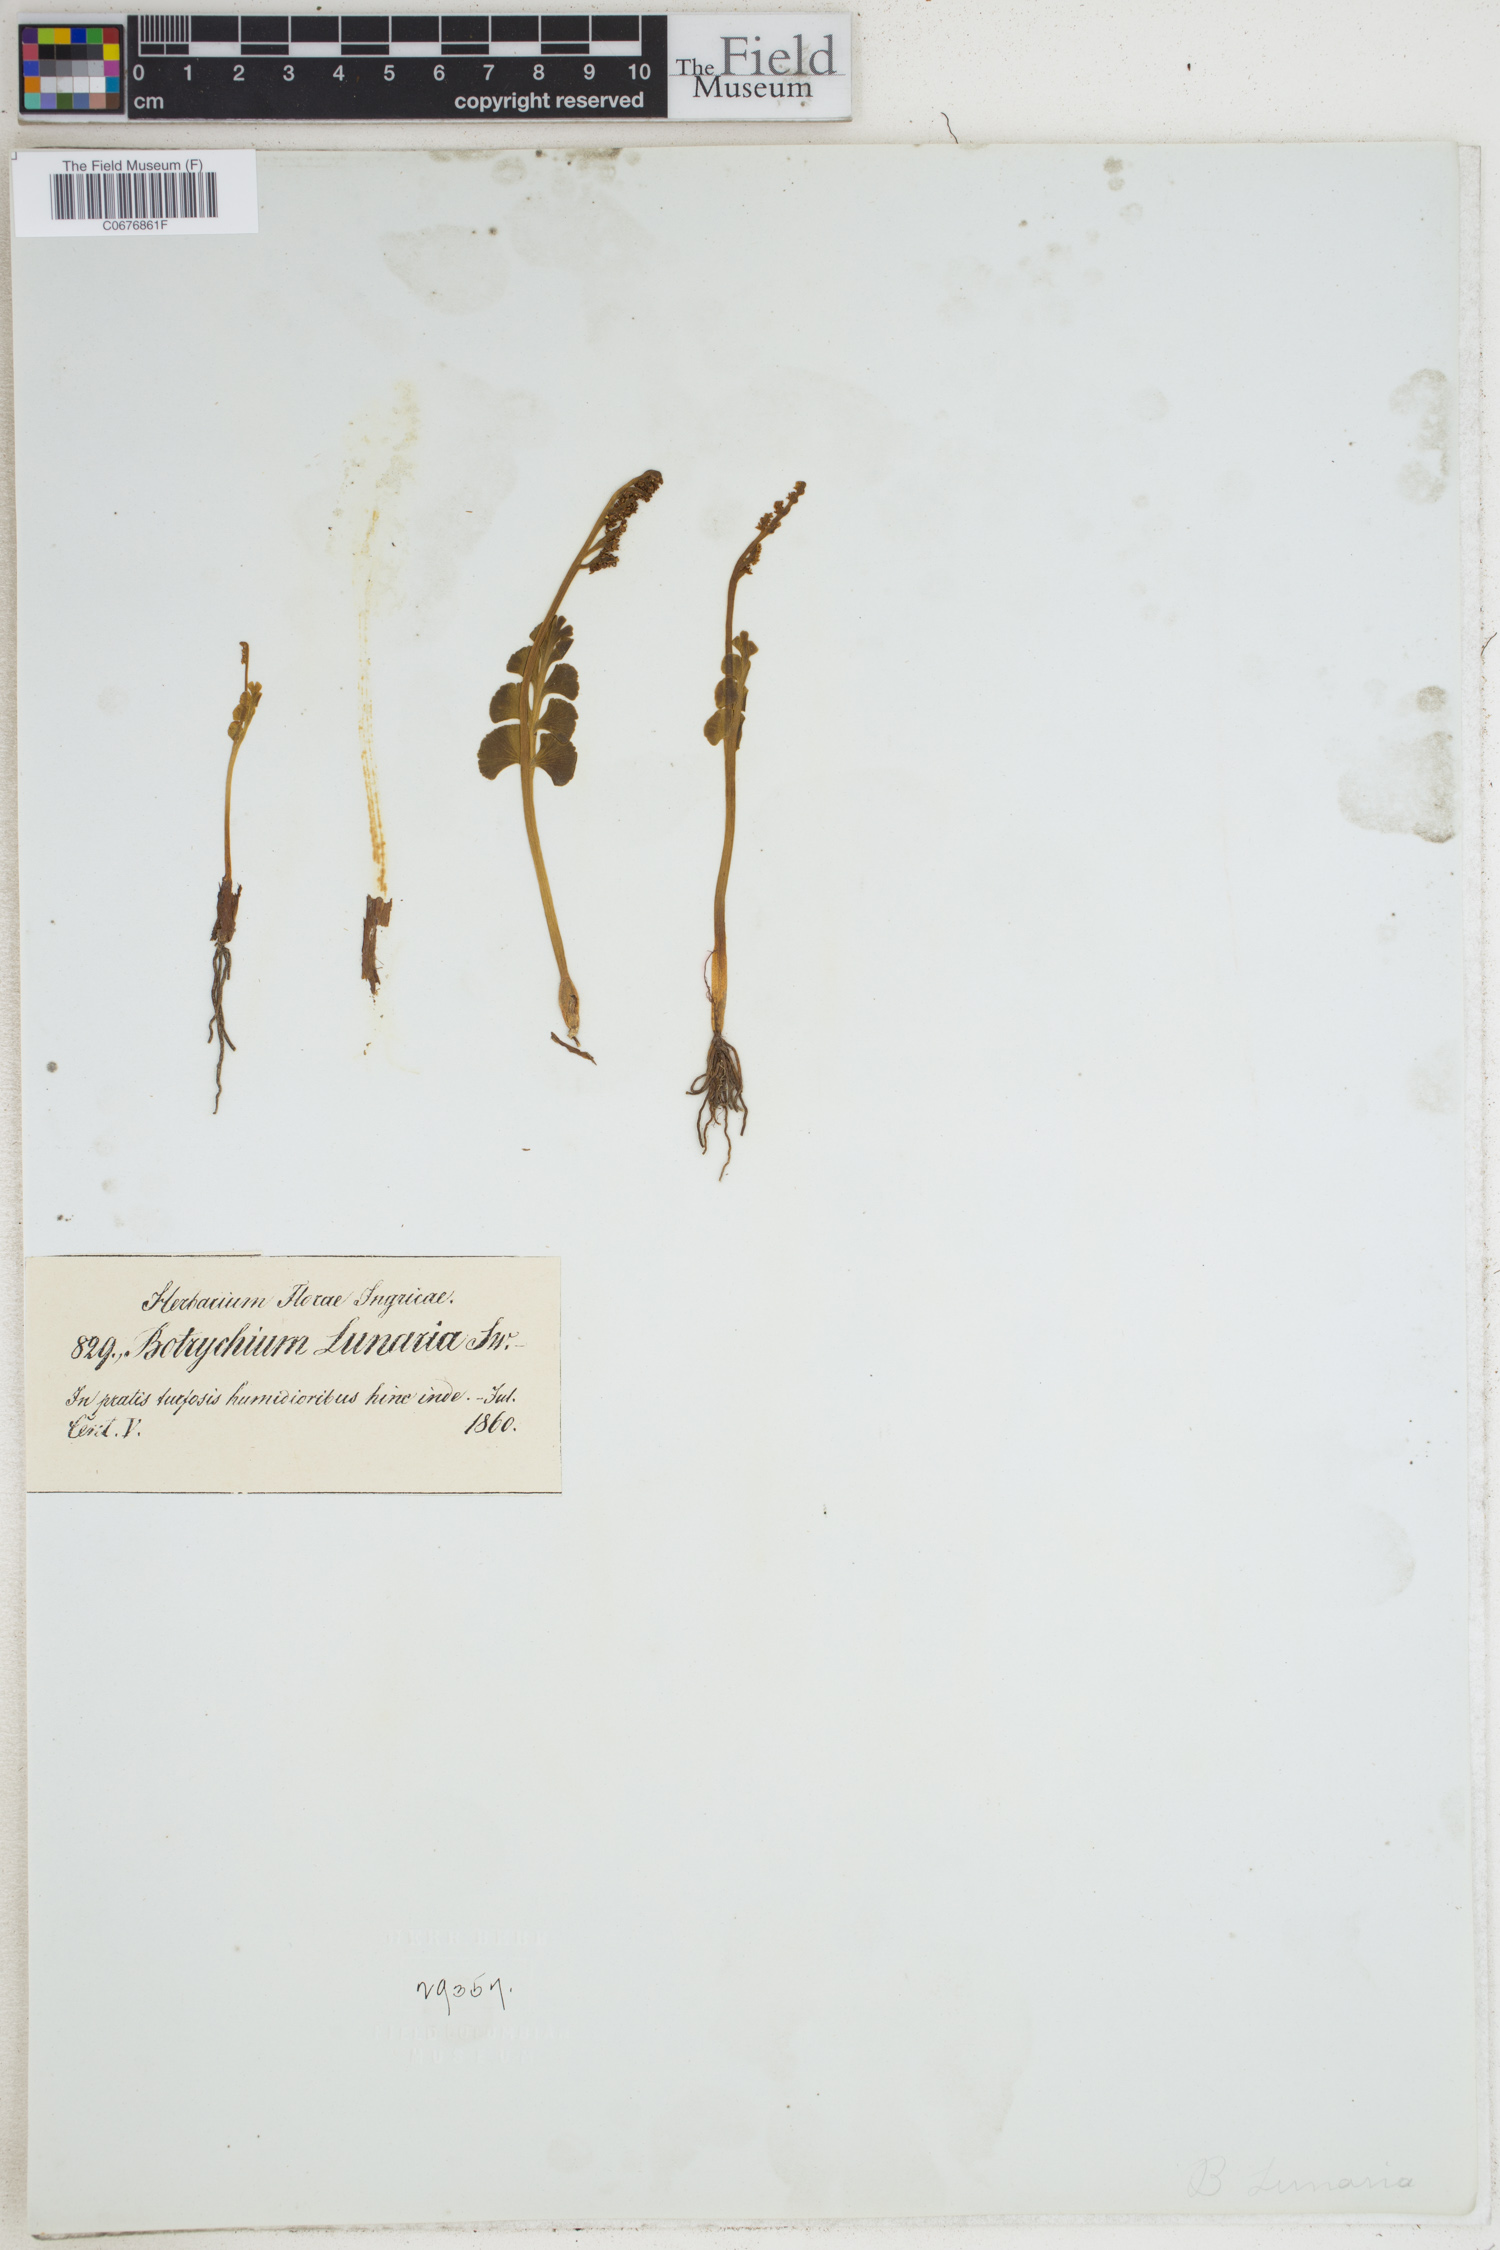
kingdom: Plantae
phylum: Tracheophyta
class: Polypodiopsida
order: Ophioglossales
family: Ophioglossaceae
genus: Botrychium
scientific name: Botrychium lunaria
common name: Moonwort
